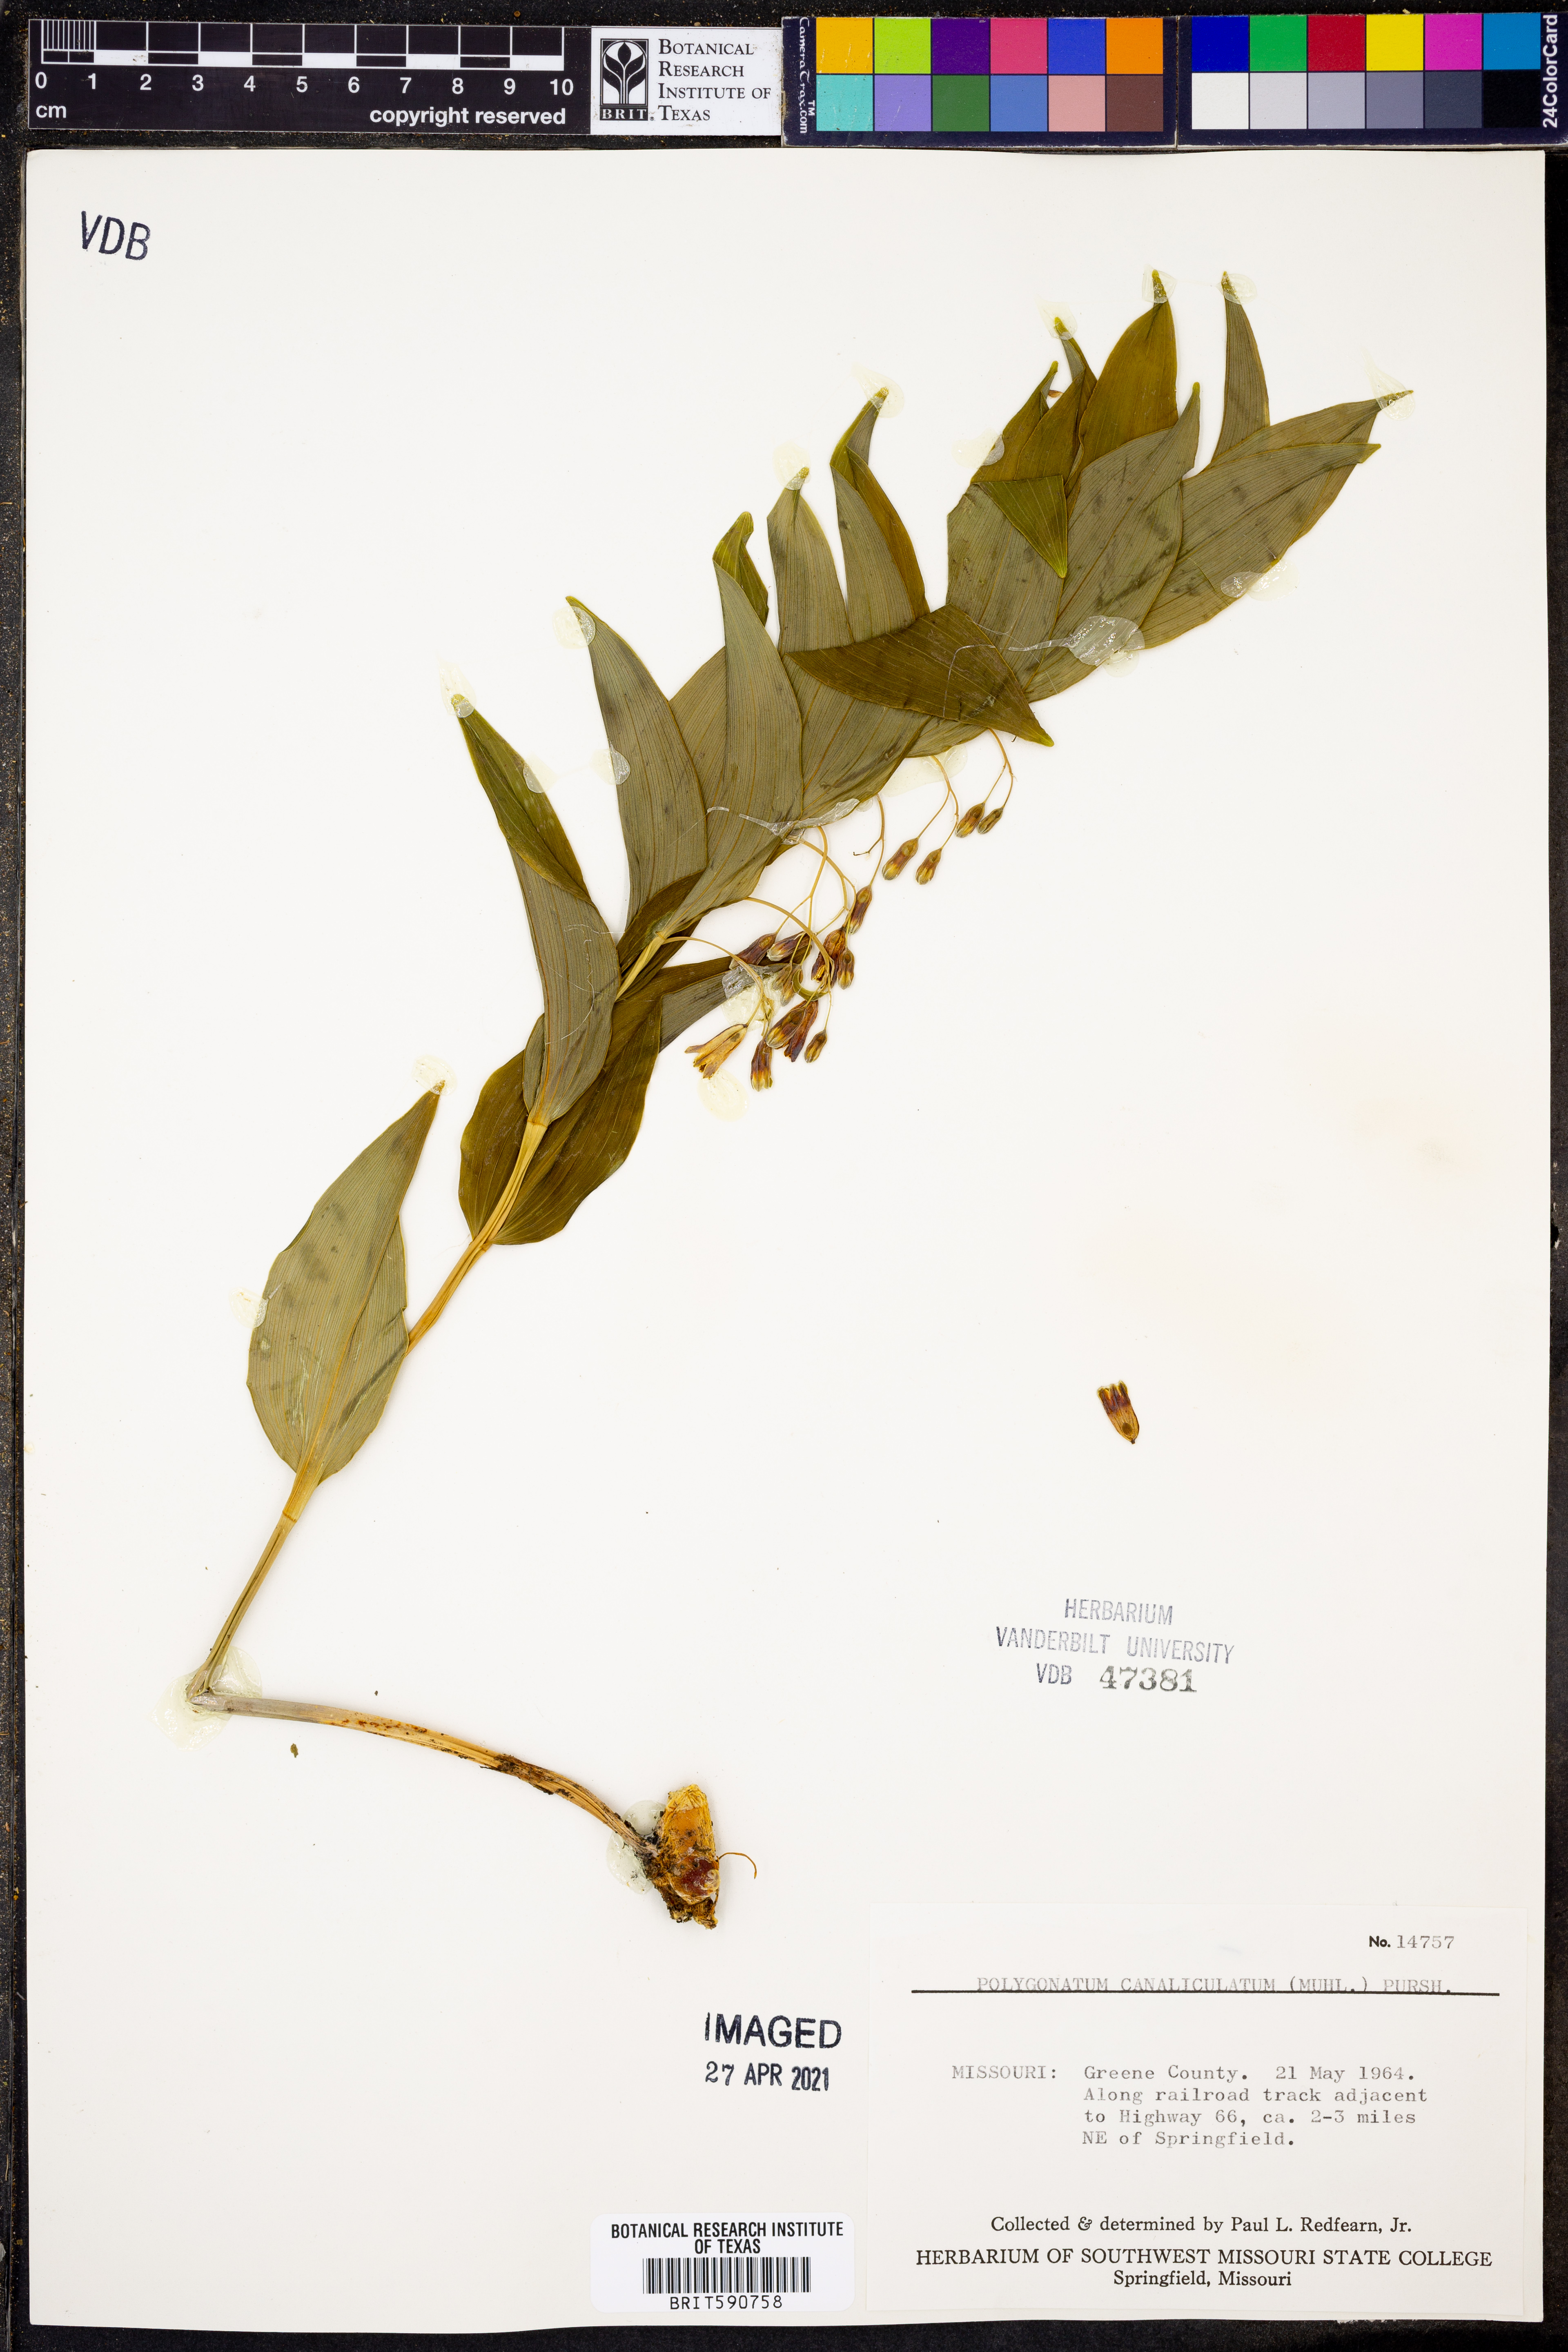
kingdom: Plantae
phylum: Tracheophyta
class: Liliopsida
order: Asparagales
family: Asparagaceae
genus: Polygonatum
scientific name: Polygonatum biflorum
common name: American solomon's-seal
